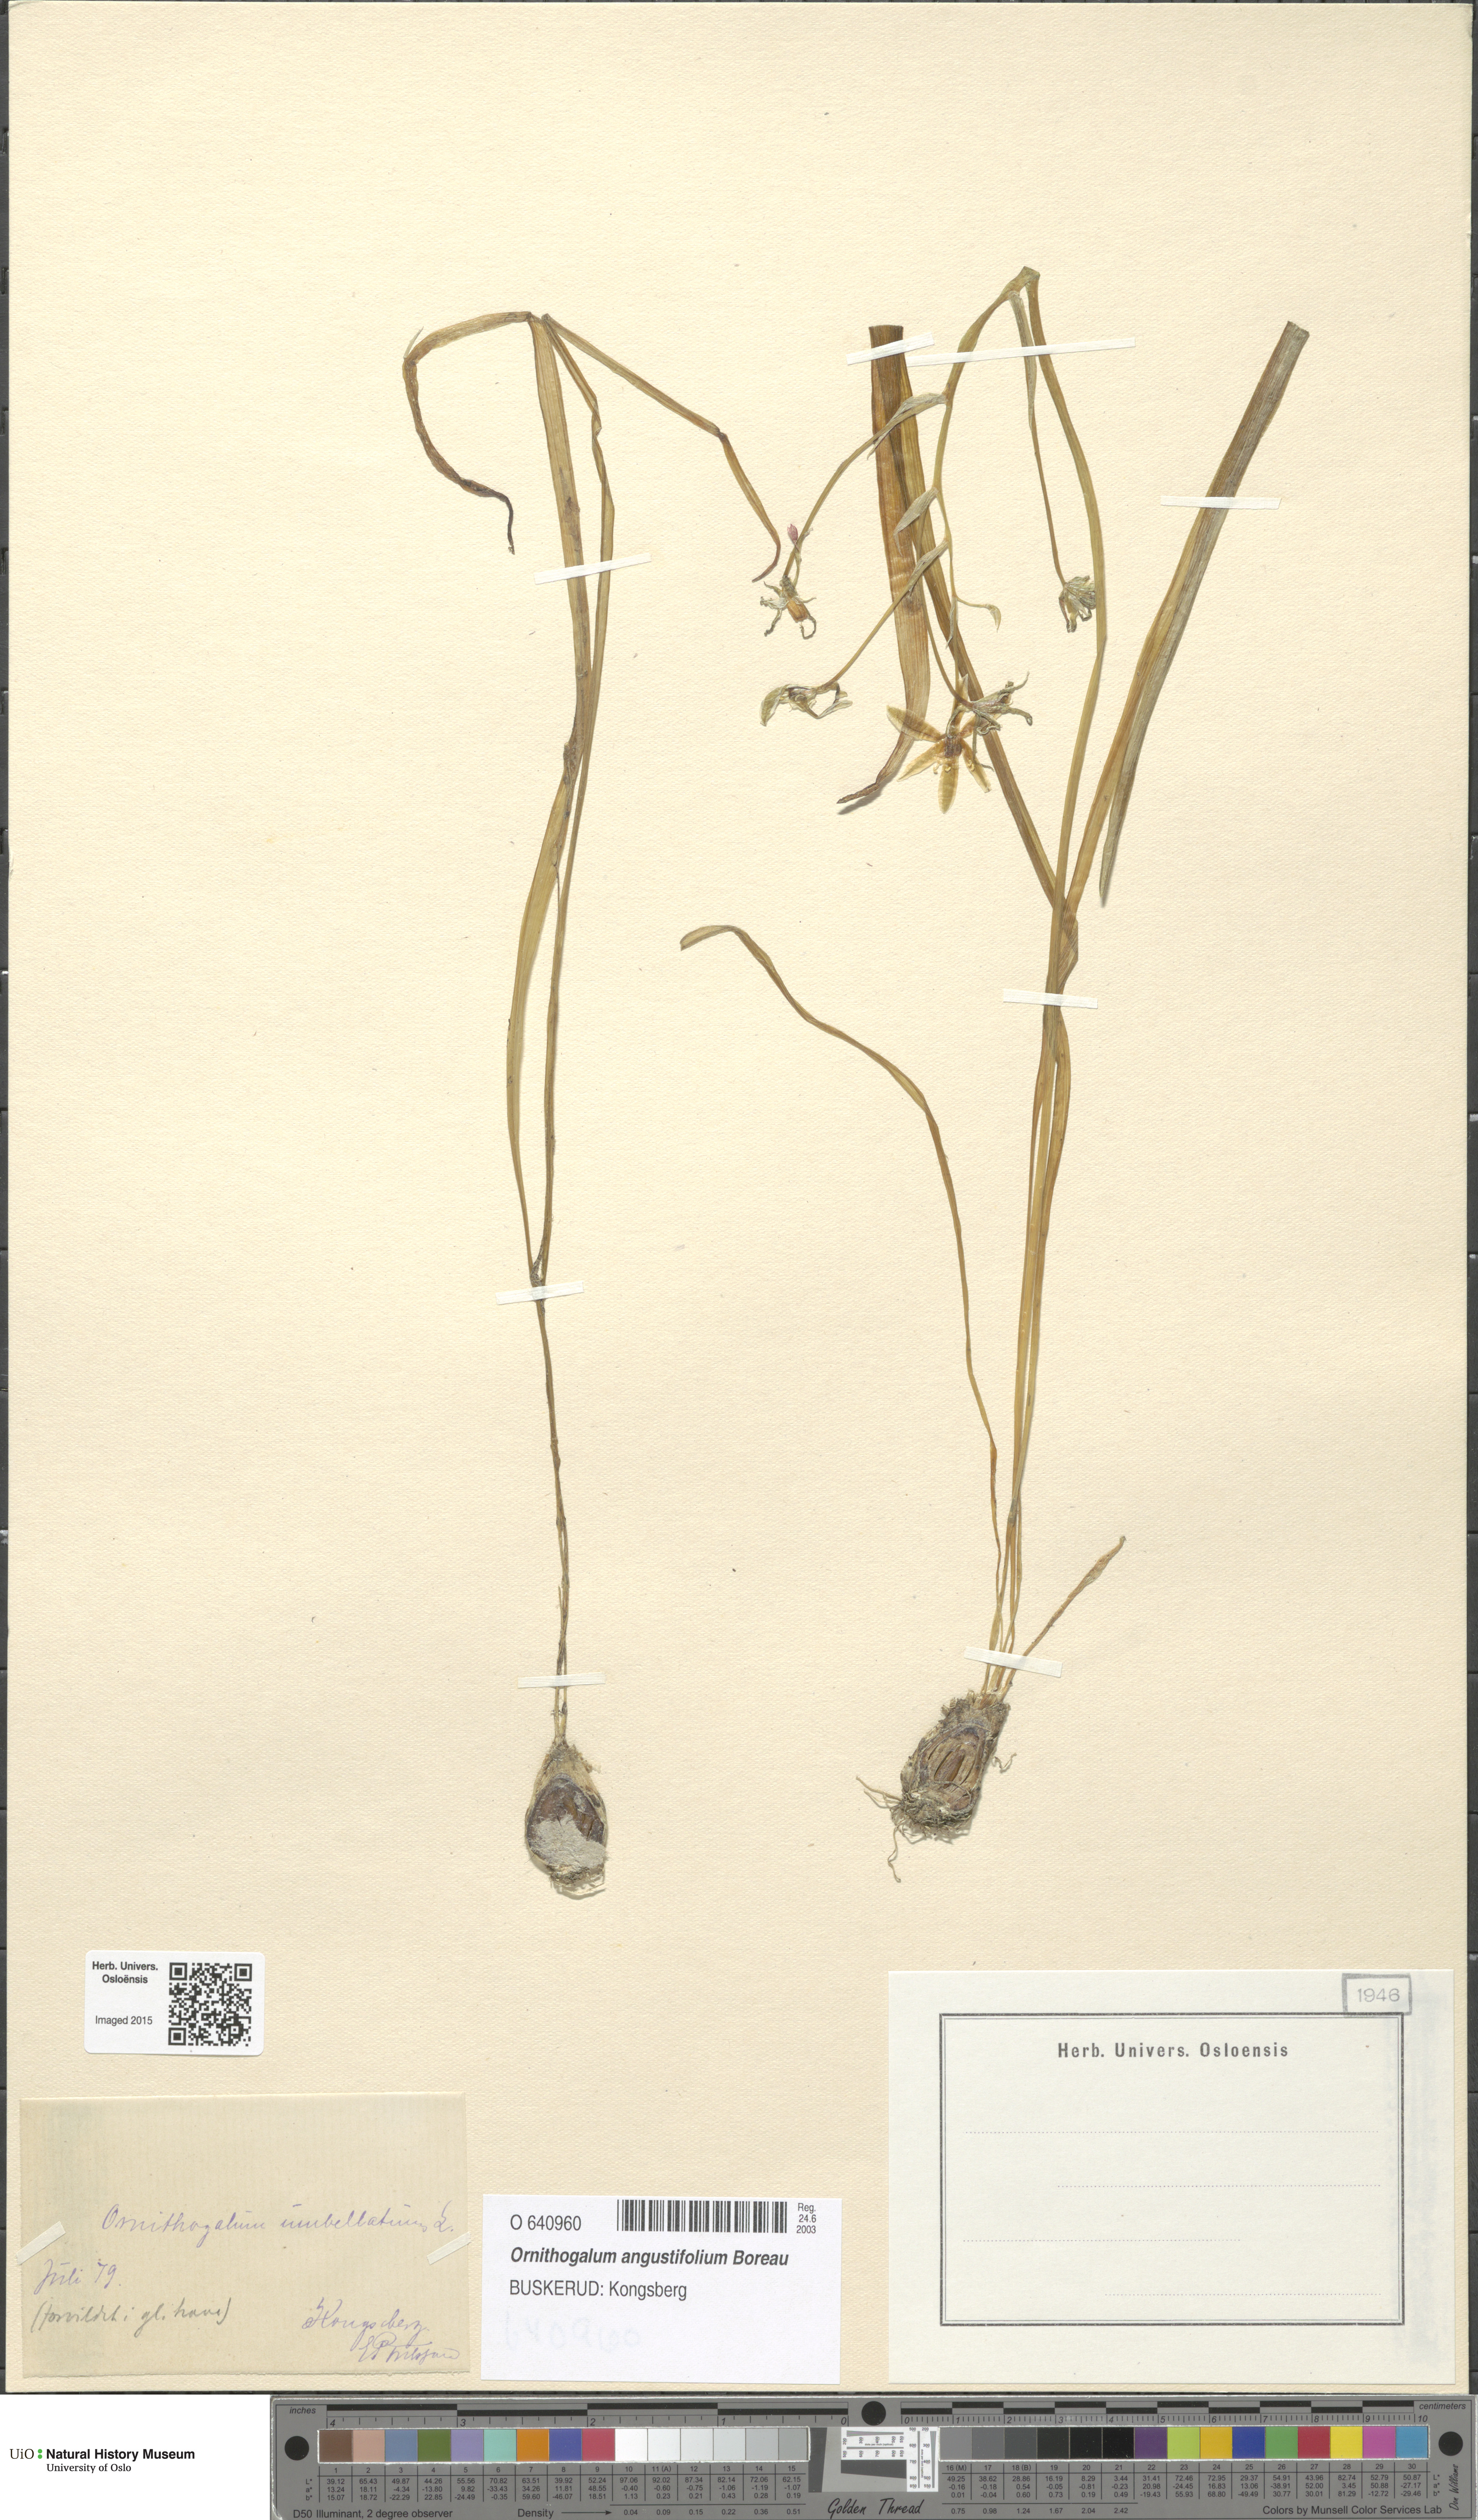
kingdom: Plantae
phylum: Tracheophyta
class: Liliopsida
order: Asparagales
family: Asparagaceae
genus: Ornithogalum
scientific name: Ornithogalum umbellatum
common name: Garden star-of-bethlehem
